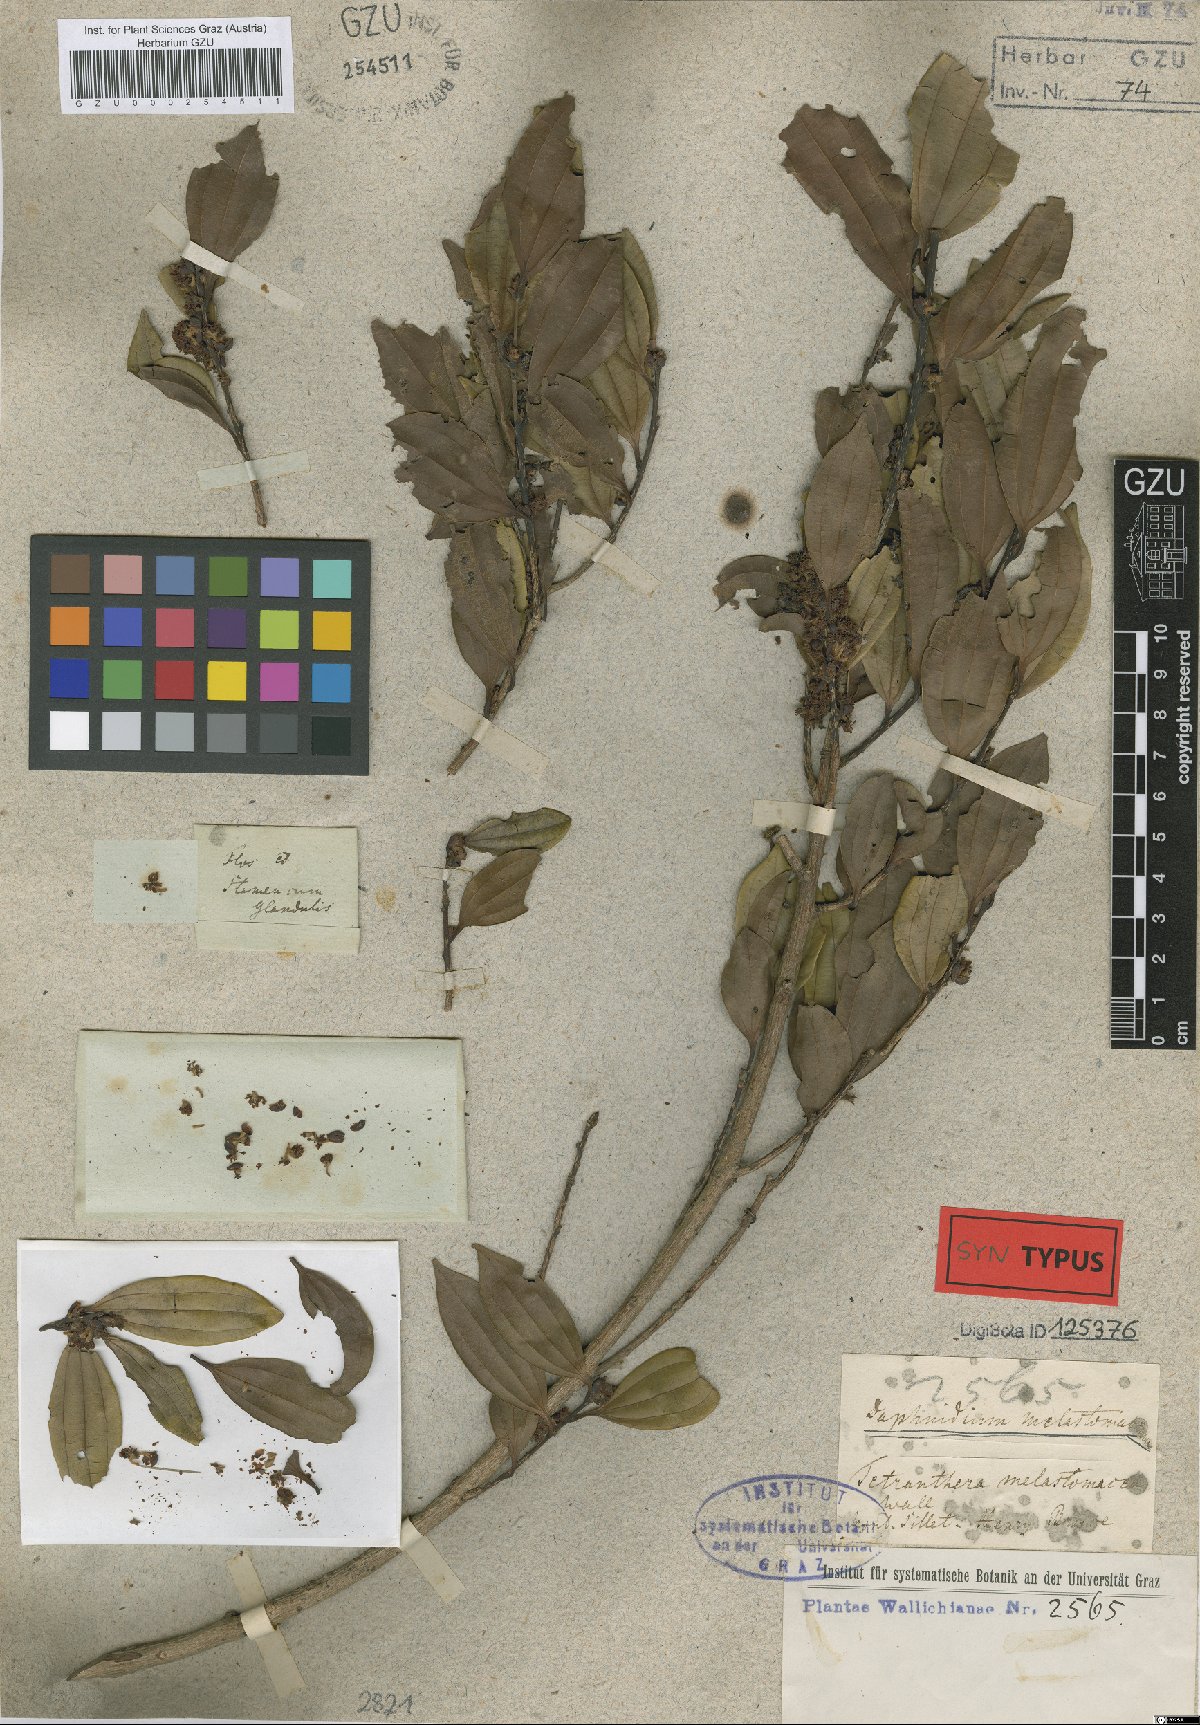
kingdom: Plantae
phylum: Tracheophyta
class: Magnoliopsida
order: Laurales
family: Lauraceae
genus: Lindera
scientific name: Lindera melastomacea
